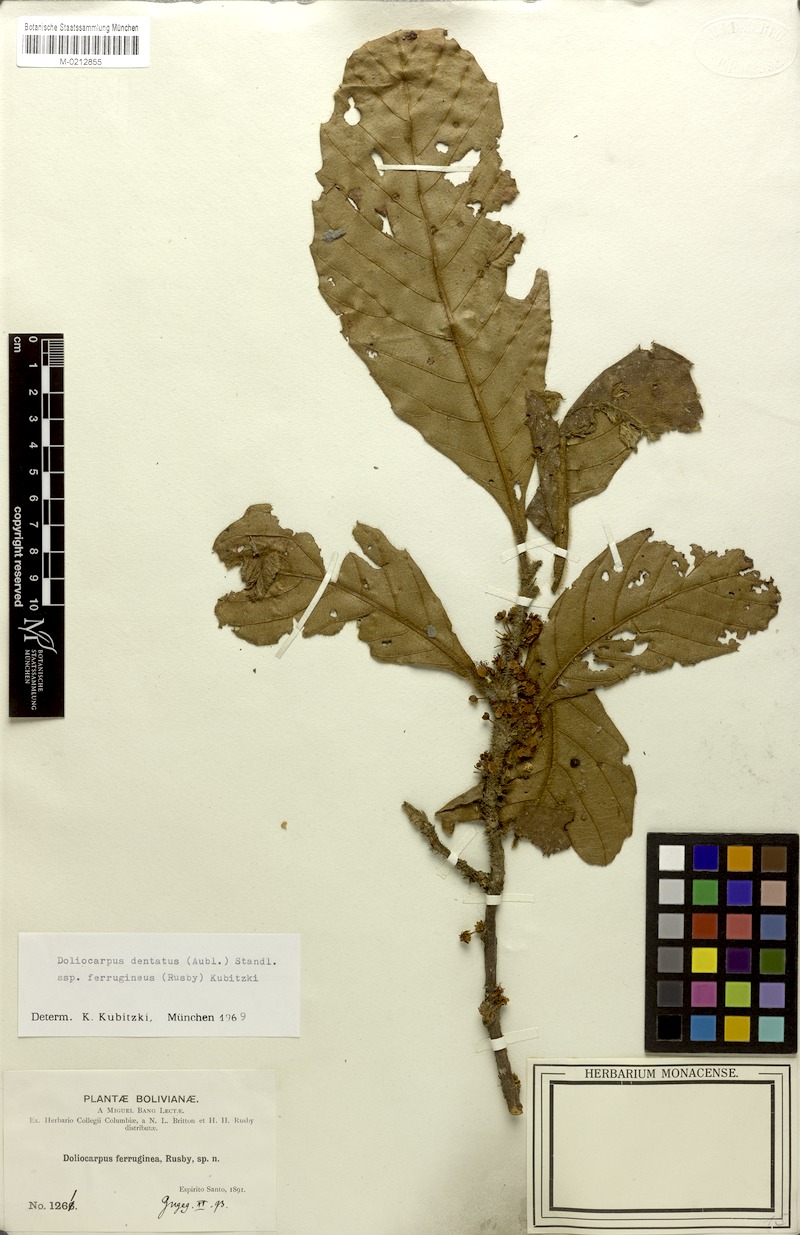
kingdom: Plantae
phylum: Tracheophyta
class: Magnoliopsida
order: Dilleniales
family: Dilleniaceae
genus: Doliocarpus
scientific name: Doliocarpus dentatus
